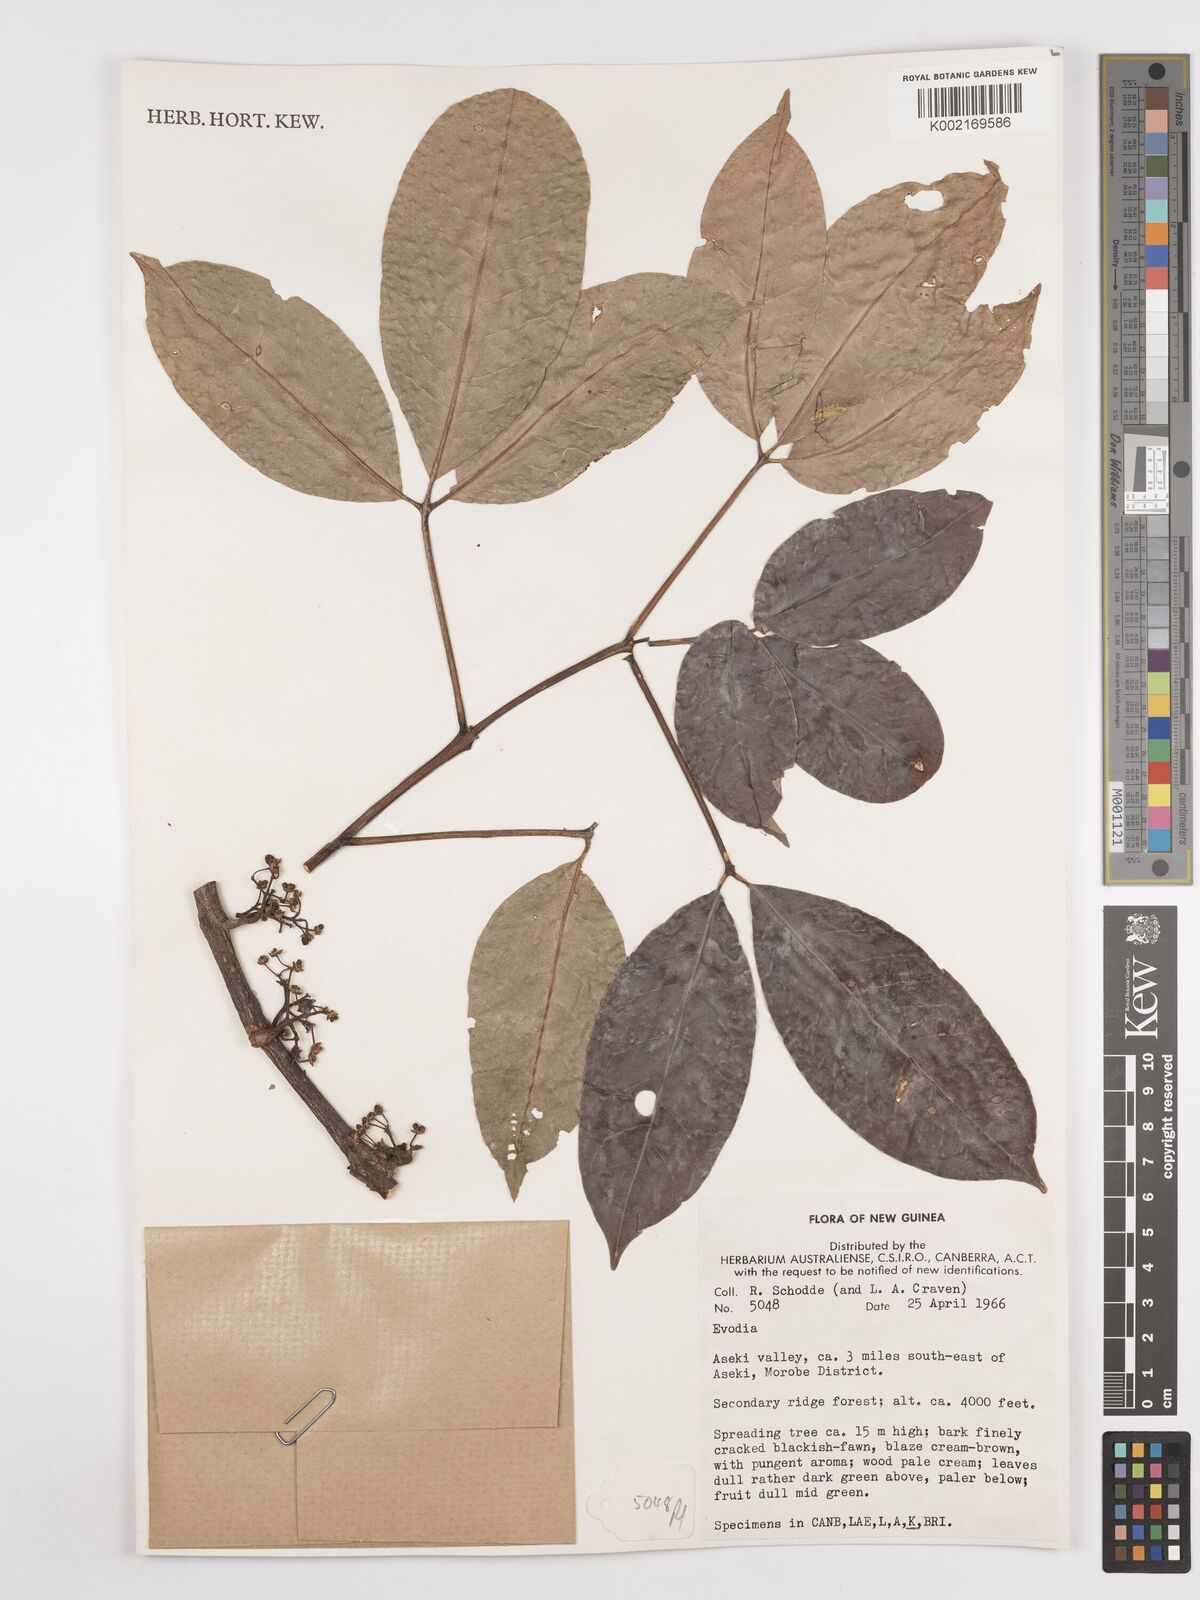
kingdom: Plantae
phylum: Tracheophyta
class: Magnoliopsida
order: Sapindales
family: Rutaceae
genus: Euodia
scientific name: Euodia
